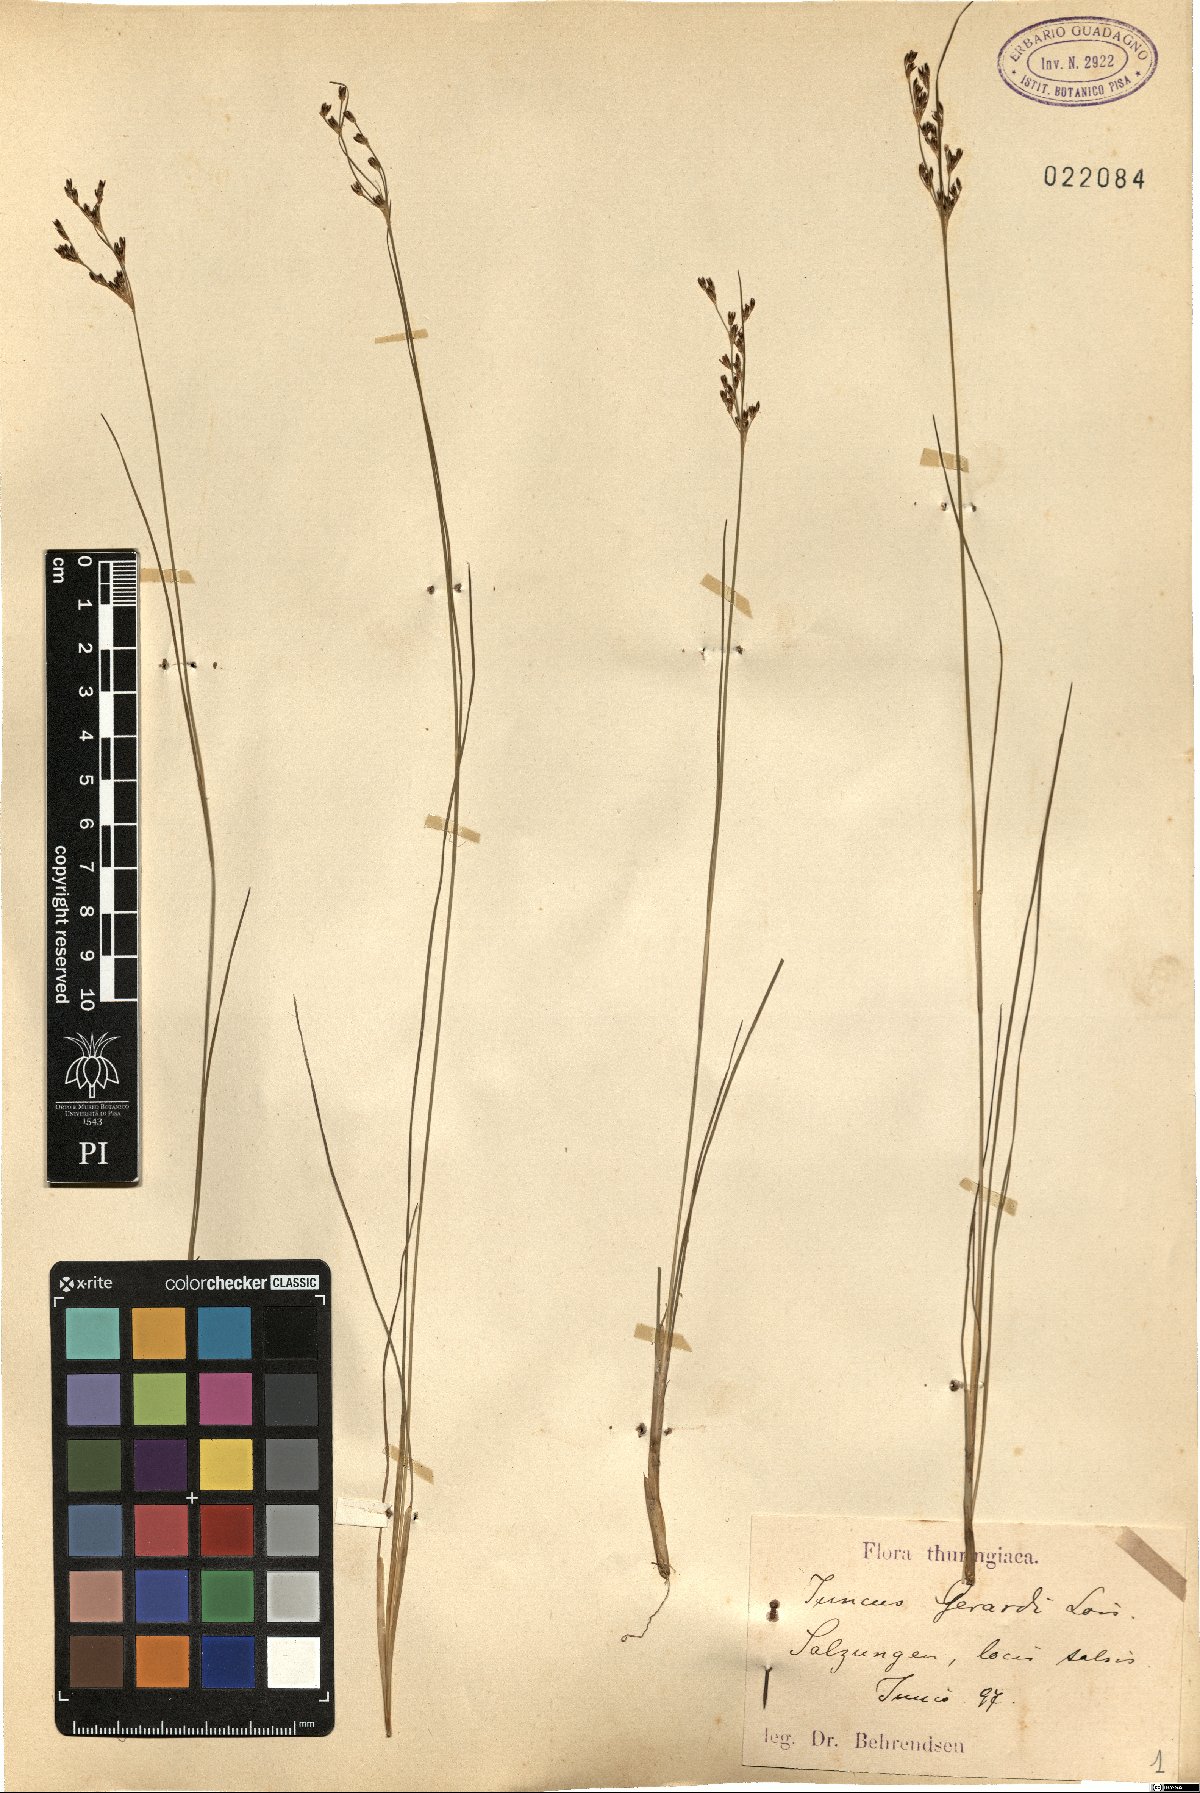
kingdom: Plantae
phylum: Tracheophyta
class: Liliopsida
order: Poales
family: Juncaceae
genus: Juncus
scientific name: Juncus gerardi
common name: Saltmarsh rush
